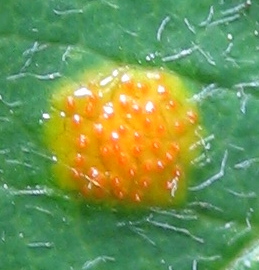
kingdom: Fungi
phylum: Basidiomycota
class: Pucciniomycetes
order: Pucciniales
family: Gymnosporangiaceae
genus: Gymnosporangium
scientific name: Gymnosporangium
